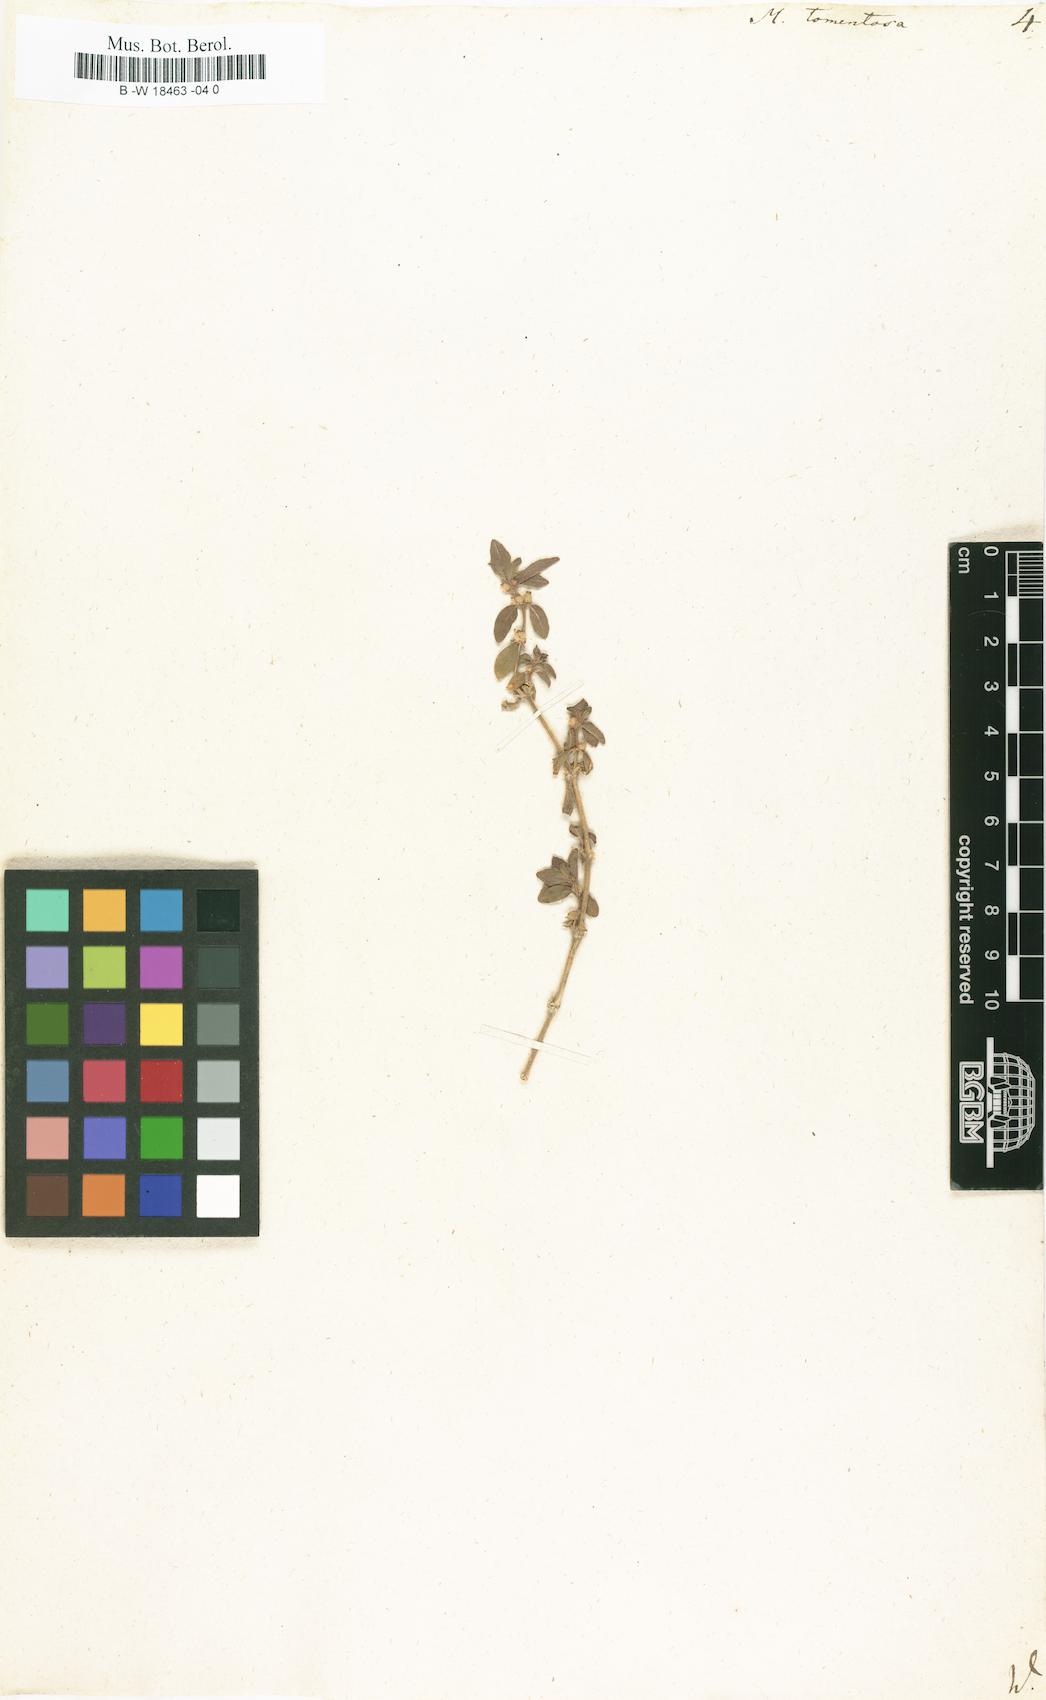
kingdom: Plantae
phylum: Tracheophyta
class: Magnoliopsida
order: Malpighiales
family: Euphorbiaceae
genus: Mercurialis
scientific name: Mercurialis tomentosa
